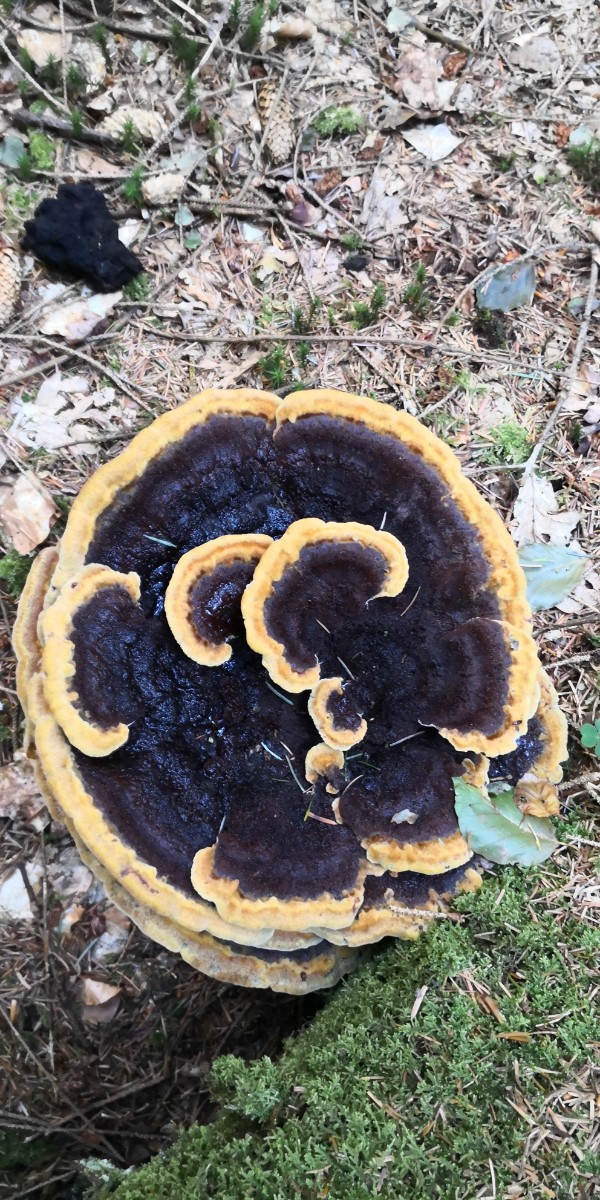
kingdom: Fungi
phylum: Basidiomycota
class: Agaricomycetes
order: Polyporales
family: Laetiporaceae
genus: Phaeolus
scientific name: Phaeolus schweinitzii
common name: brunporesvamp
